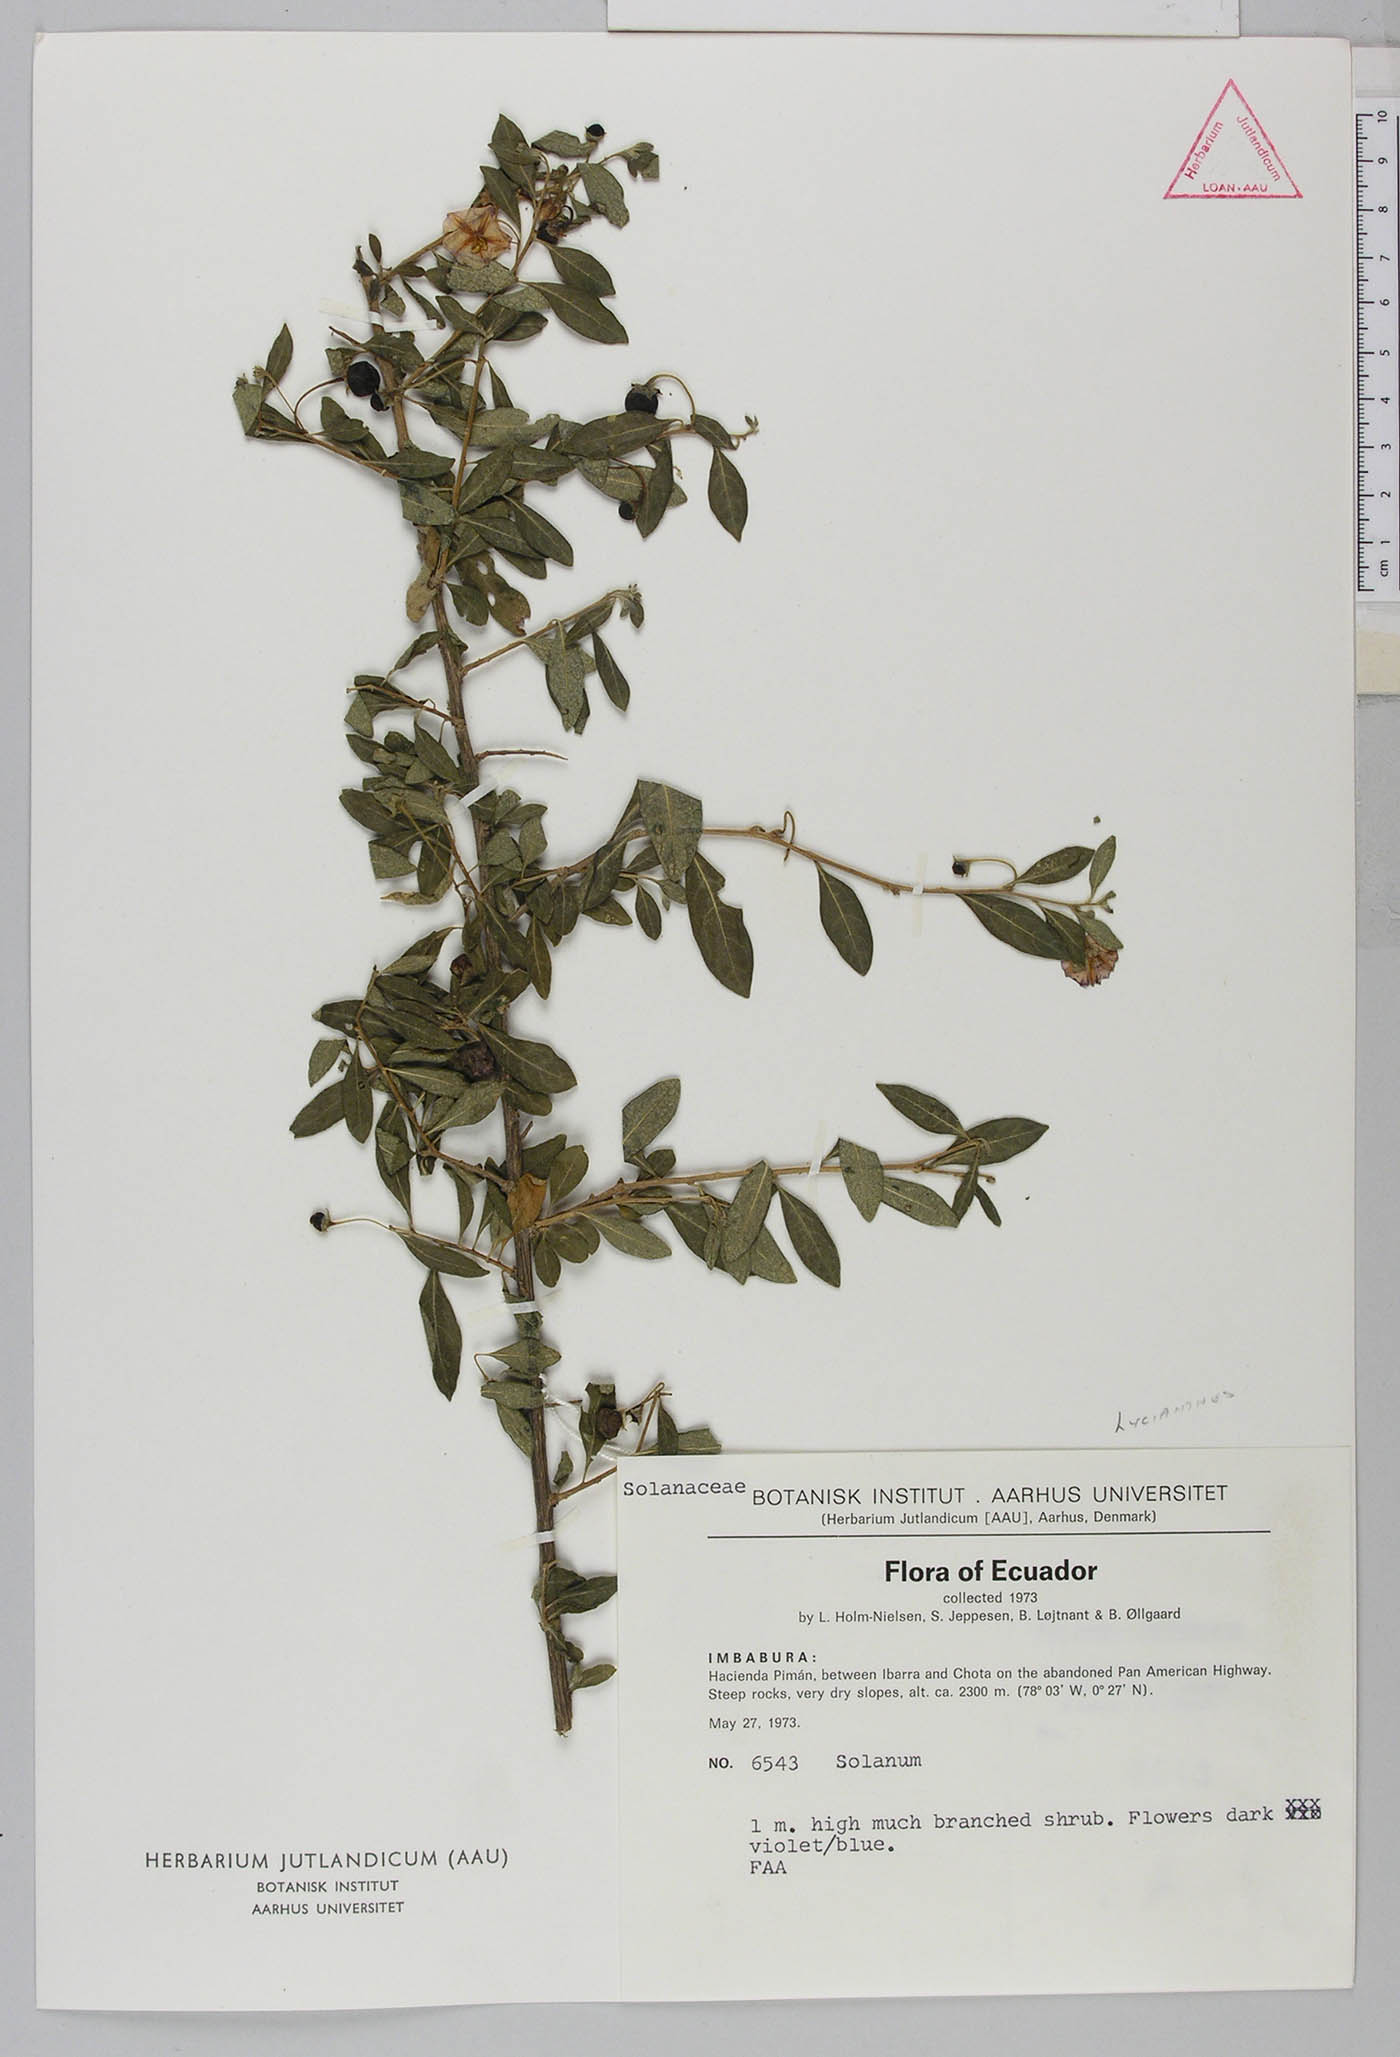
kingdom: Plantae
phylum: Tracheophyta
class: Magnoliopsida
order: Solanales
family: Solanaceae
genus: Lycianthes
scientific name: Lycianthes lycioides
